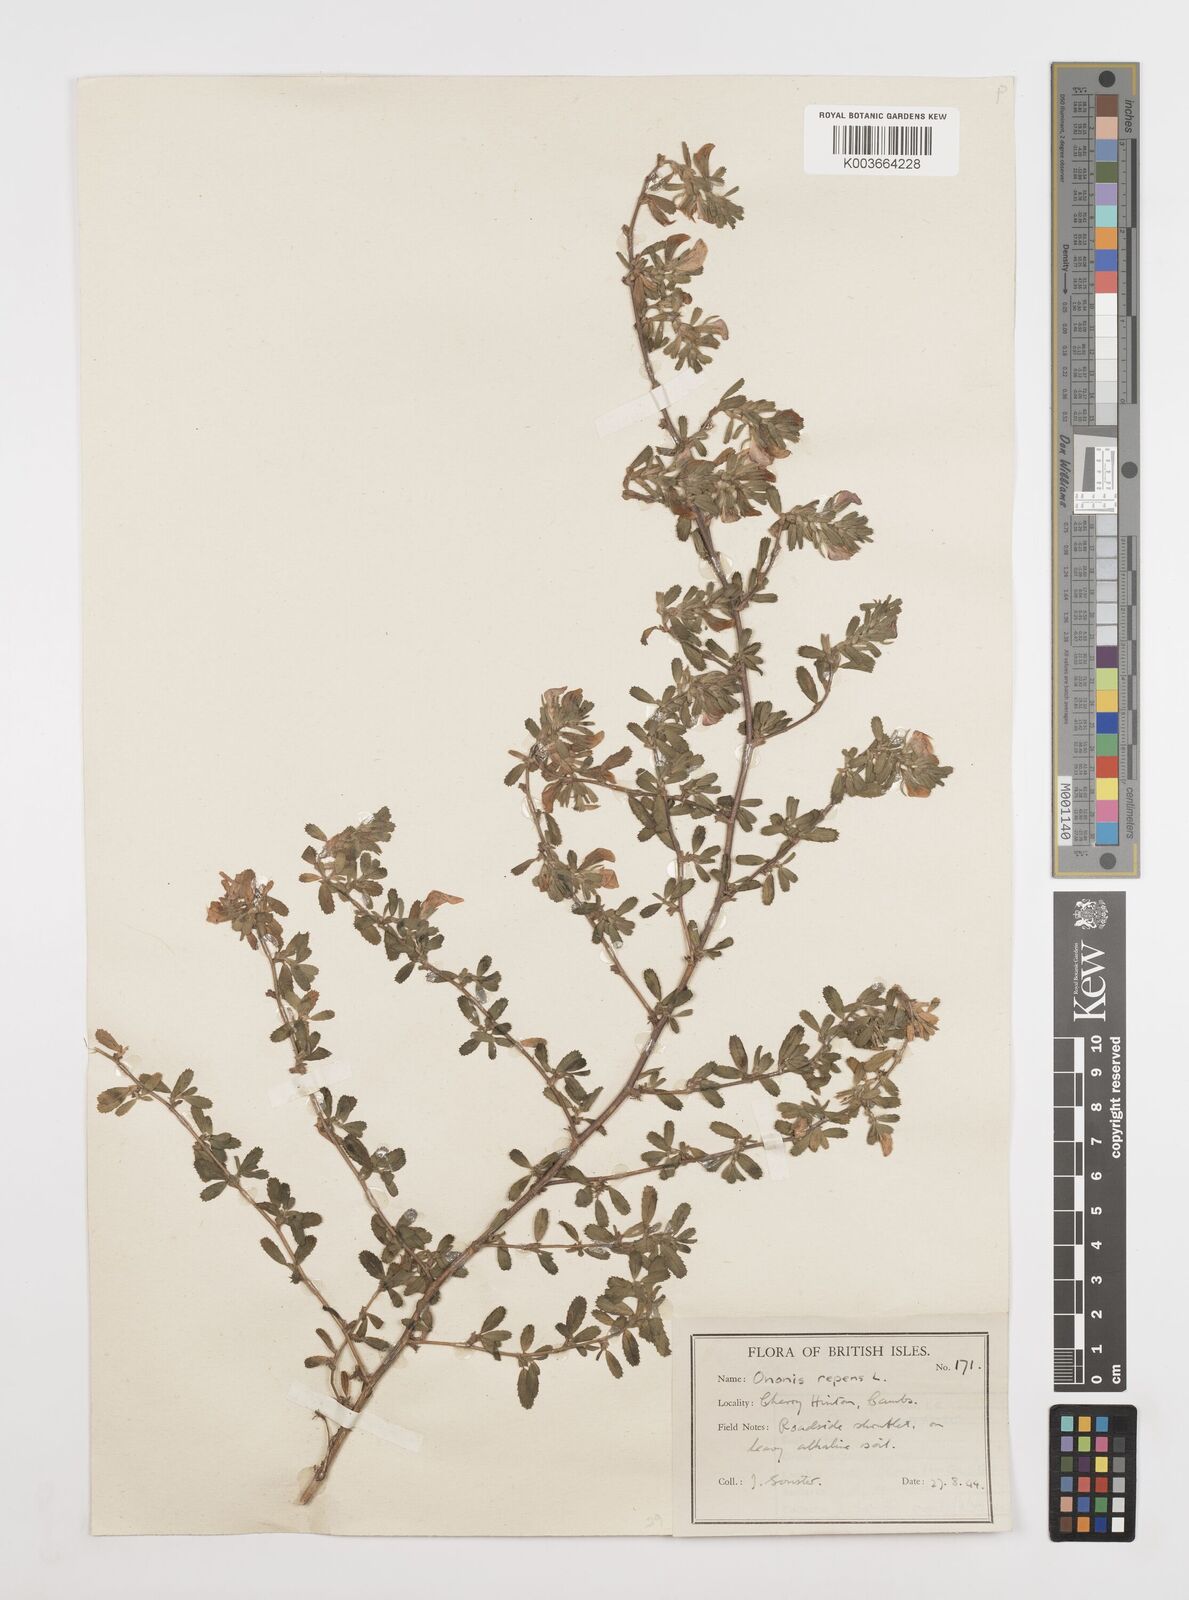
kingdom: Plantae
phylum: Tracheophyta
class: Magnoliopsida
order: Fabales
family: Fabaceae
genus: Ononis
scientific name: Ononis spinosa
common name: Spiny restharrow
